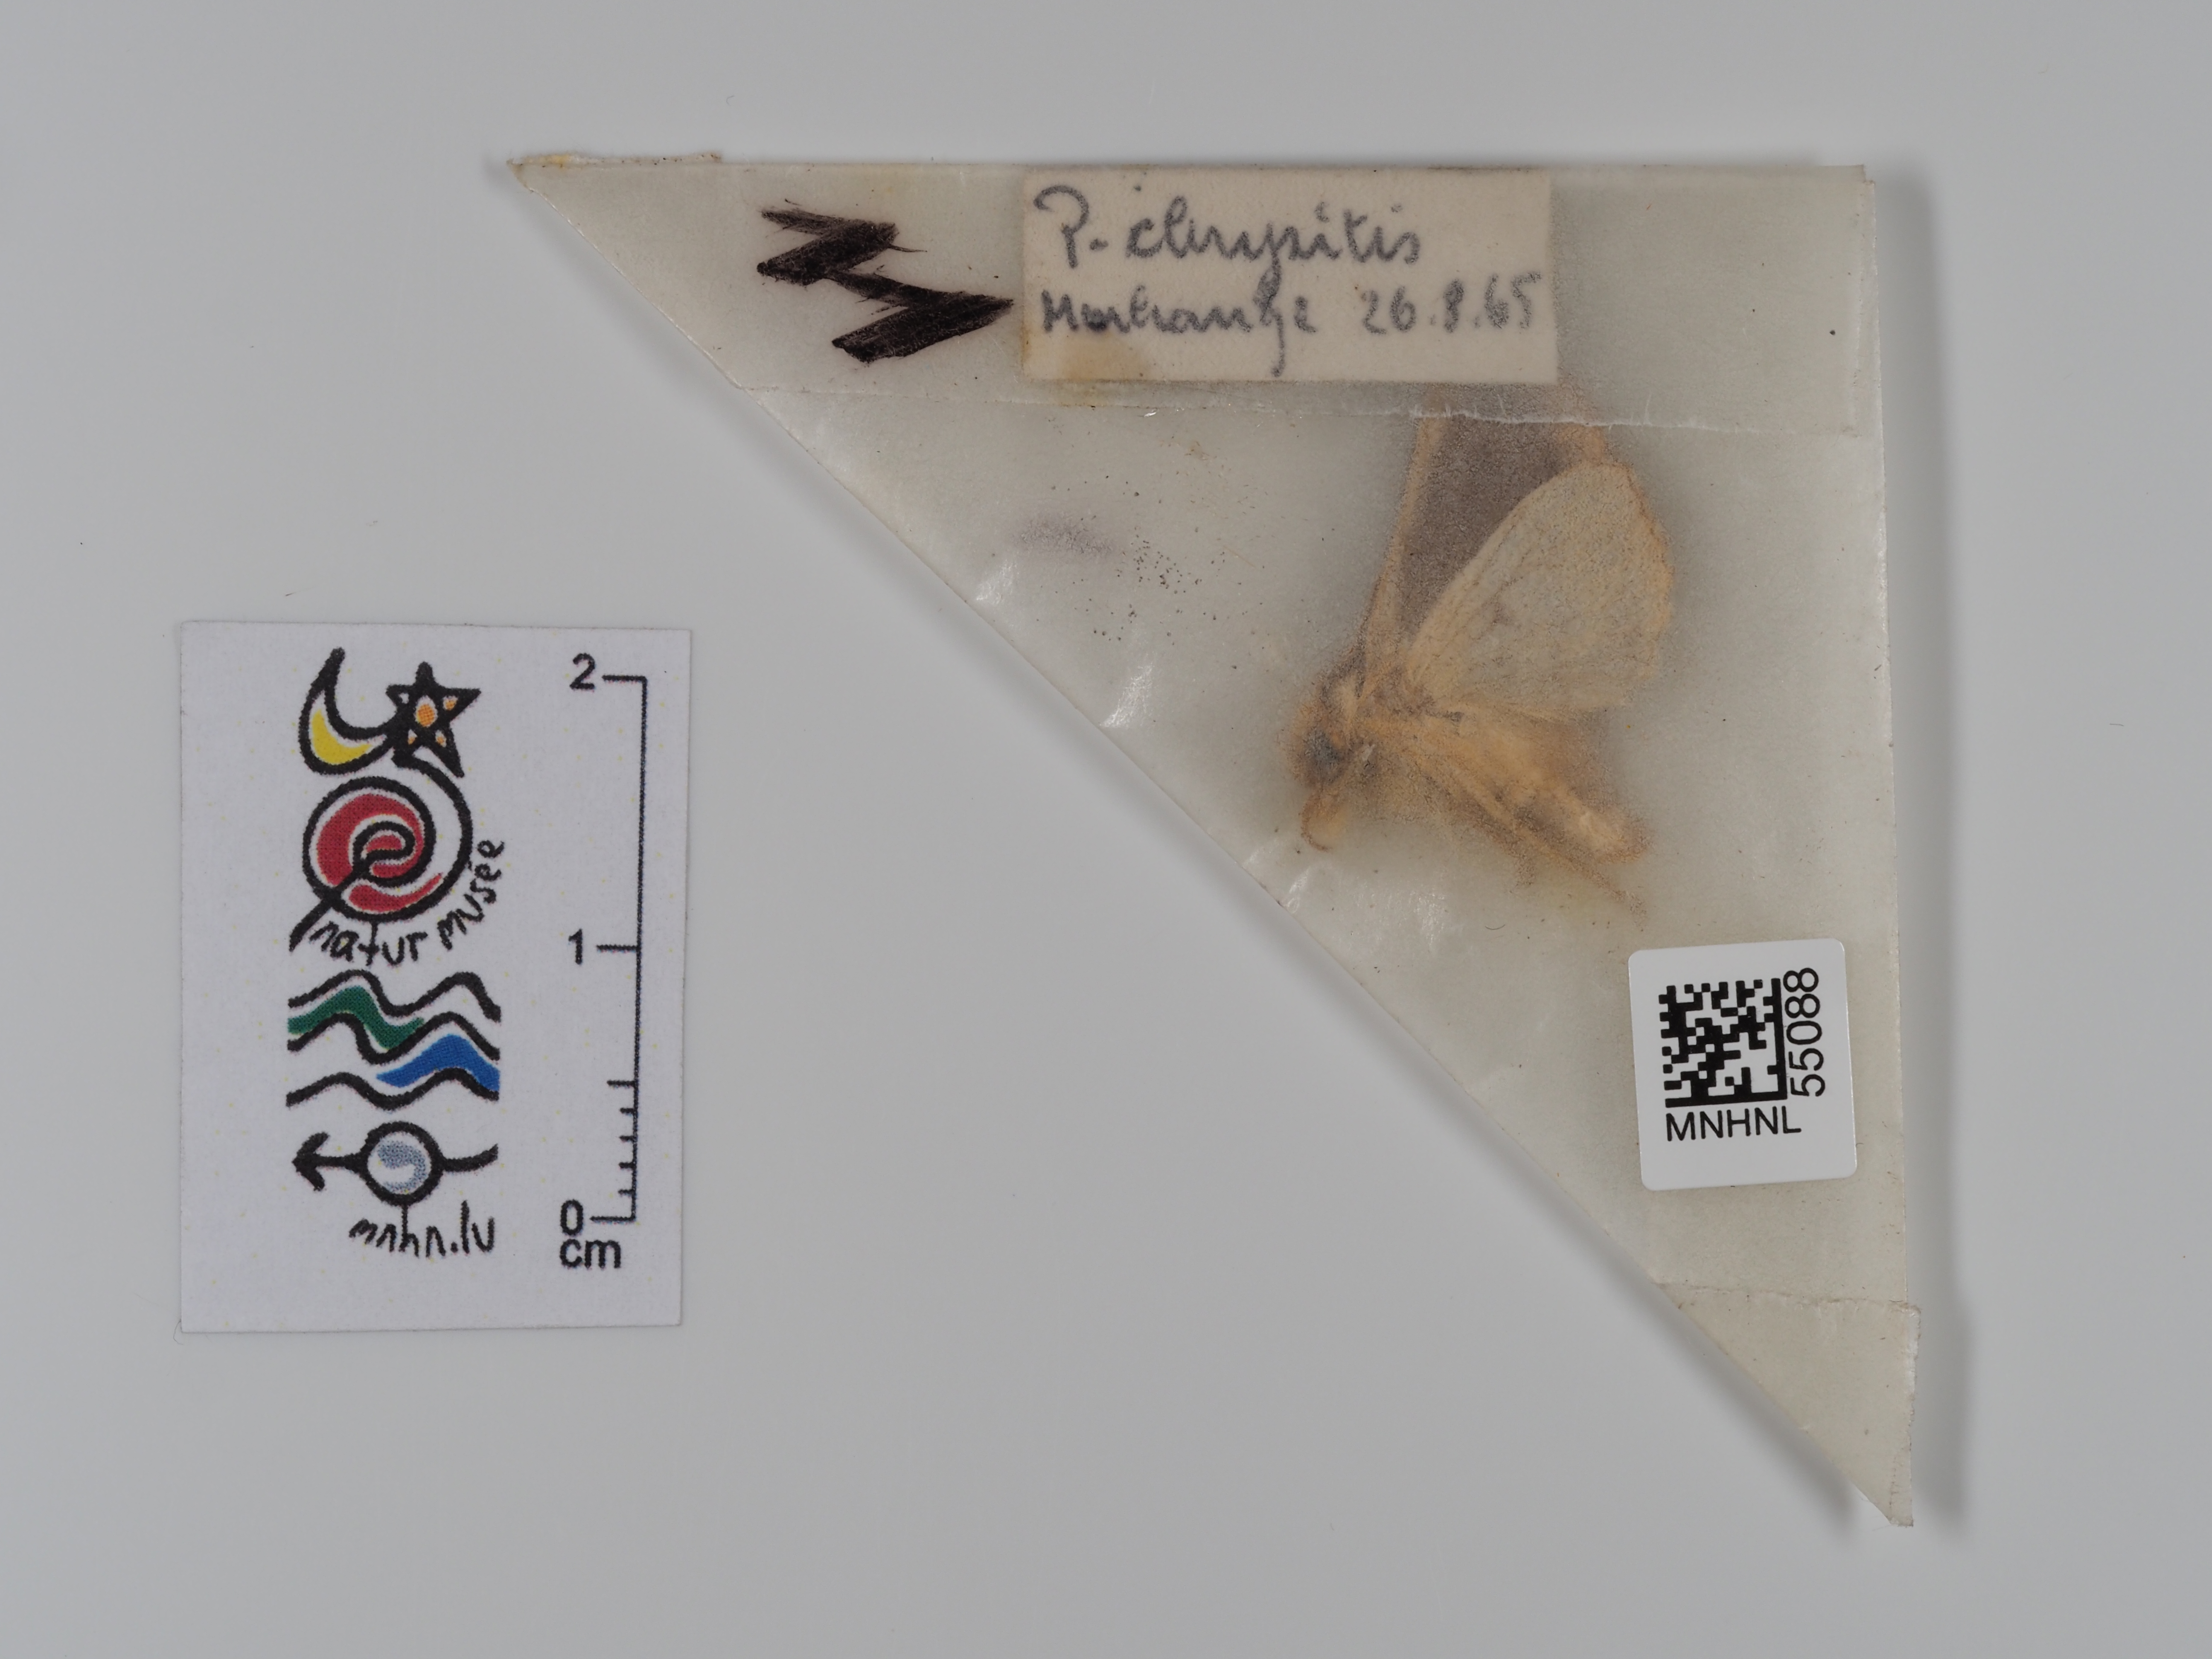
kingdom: Animalia
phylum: Arthropoda
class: Insecta
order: Lepidoptera
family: Noctuidae
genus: Diachrysia
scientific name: Diachrysia chrysitis
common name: Burnished brass
